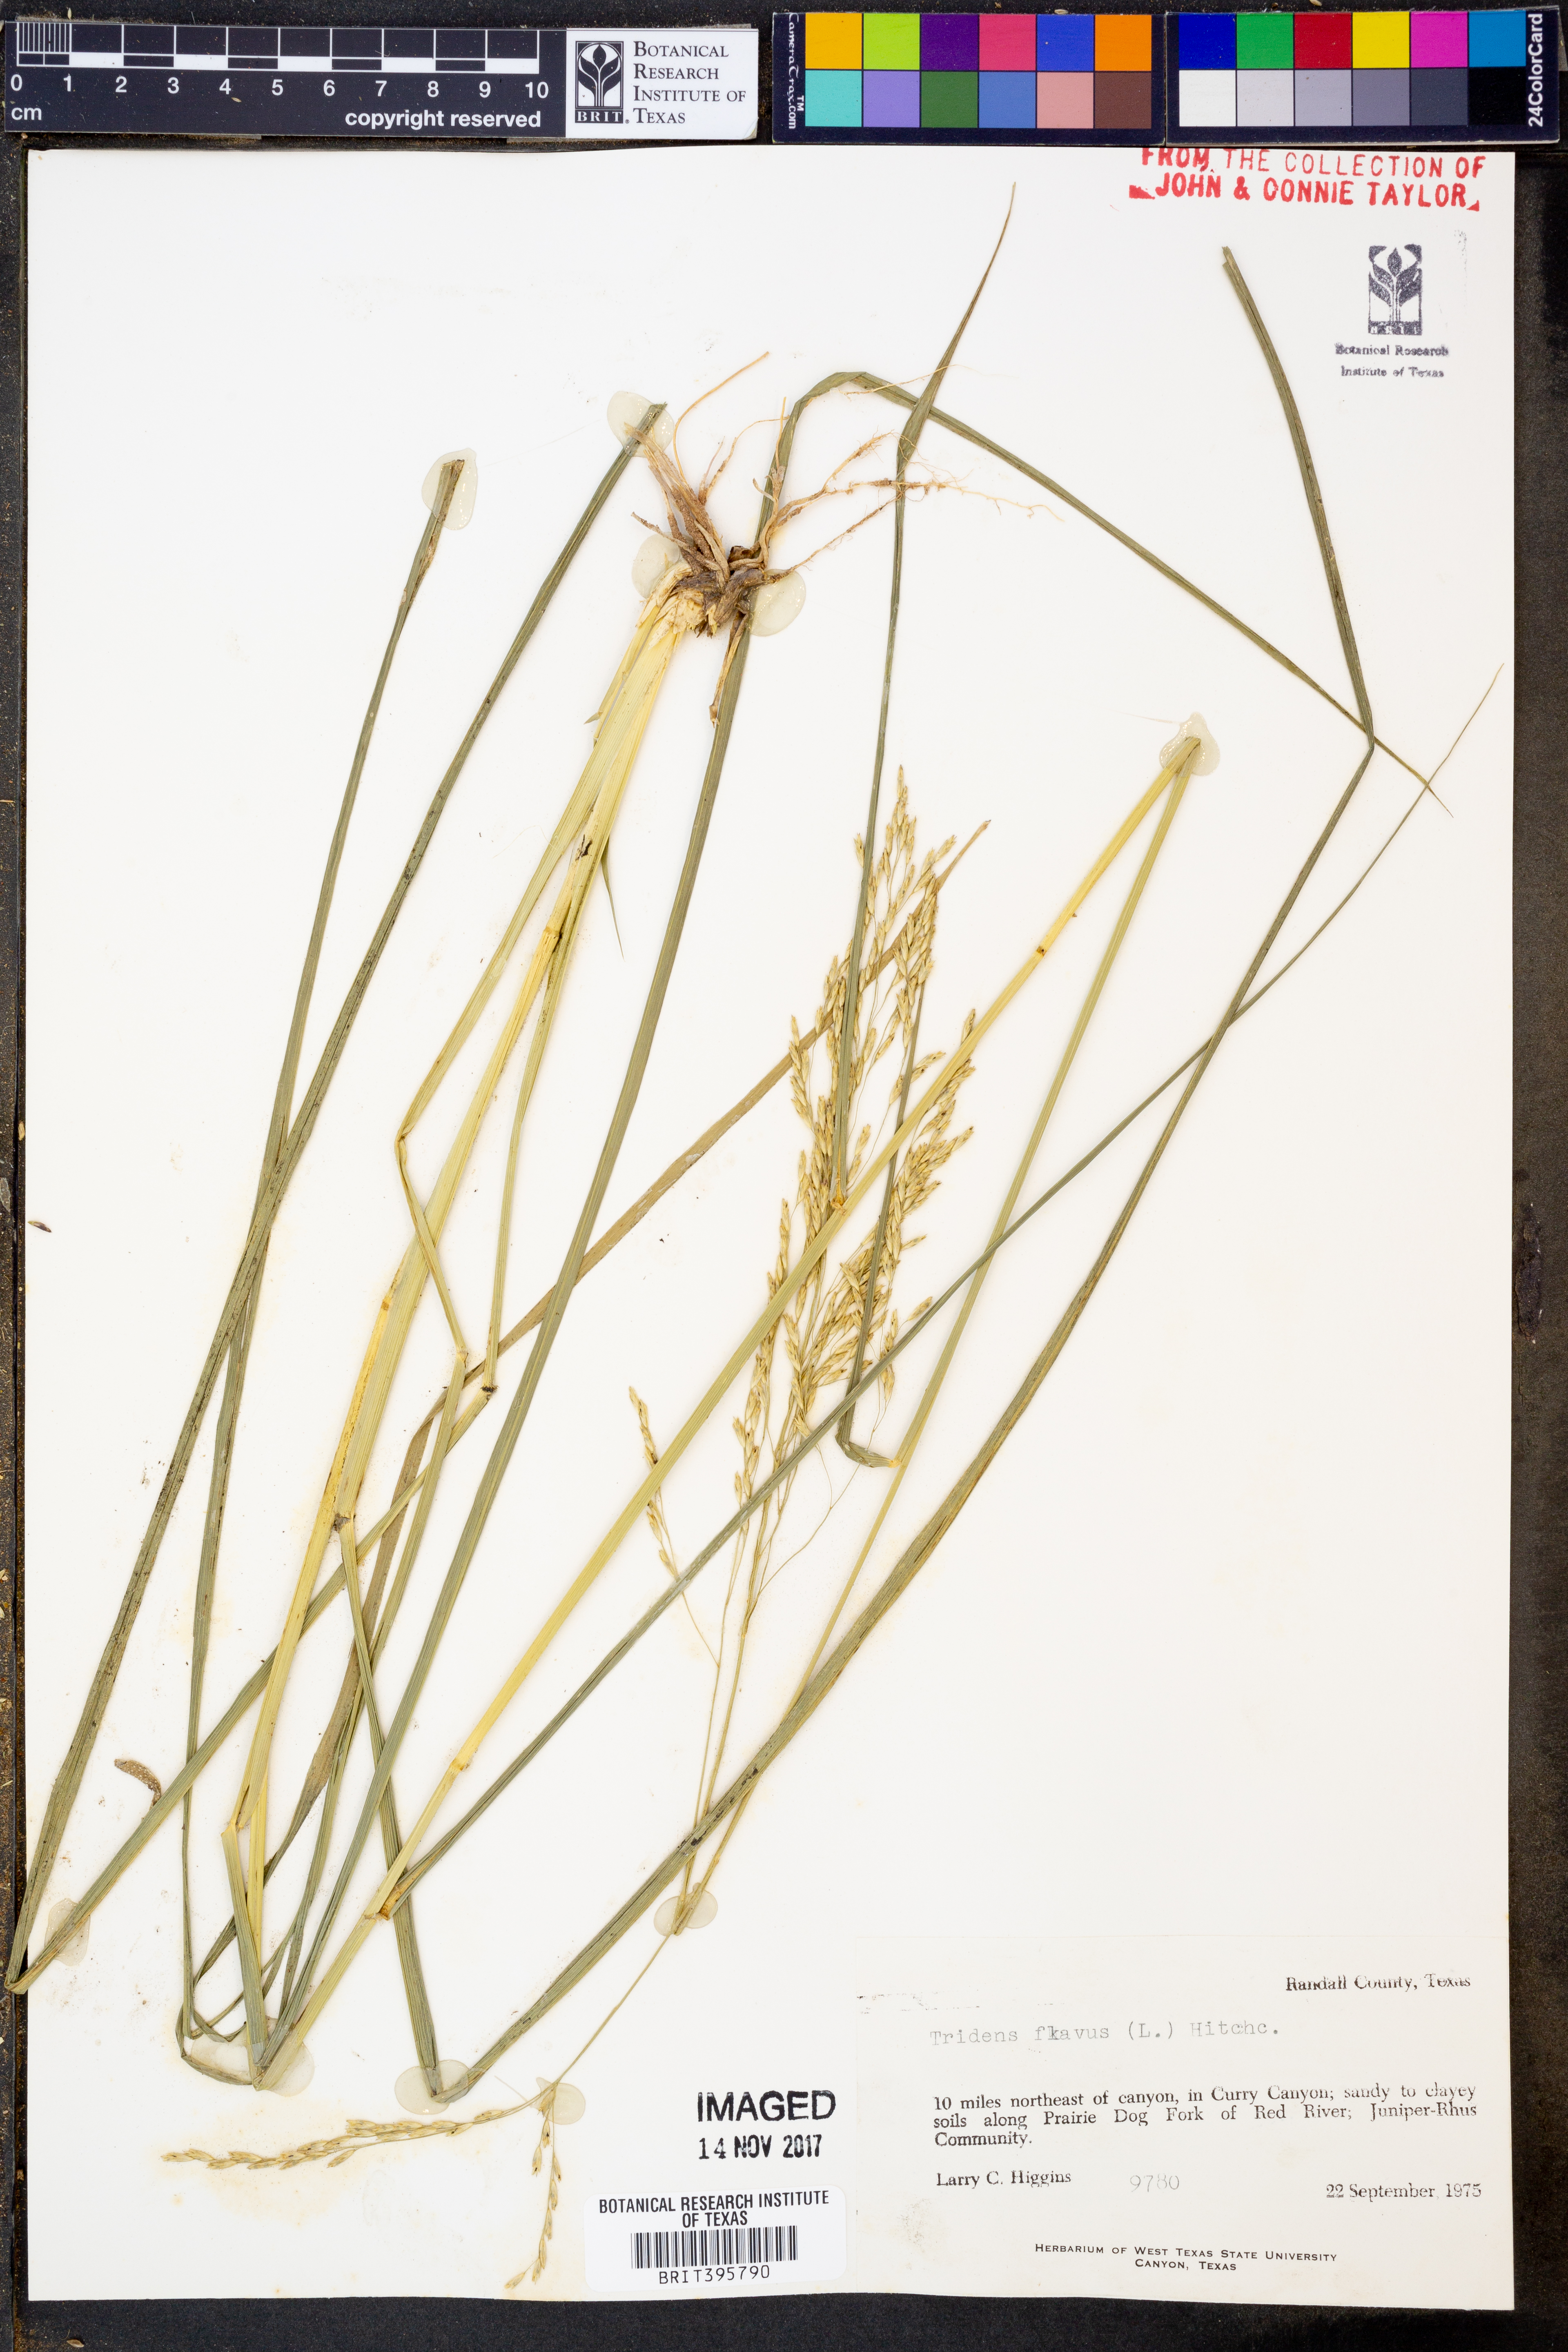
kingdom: Plantae
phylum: Tracheophyta
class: Liliopsida
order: Poales
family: Poaceae
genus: Tridens
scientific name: Tridens flavus
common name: Purpletop
